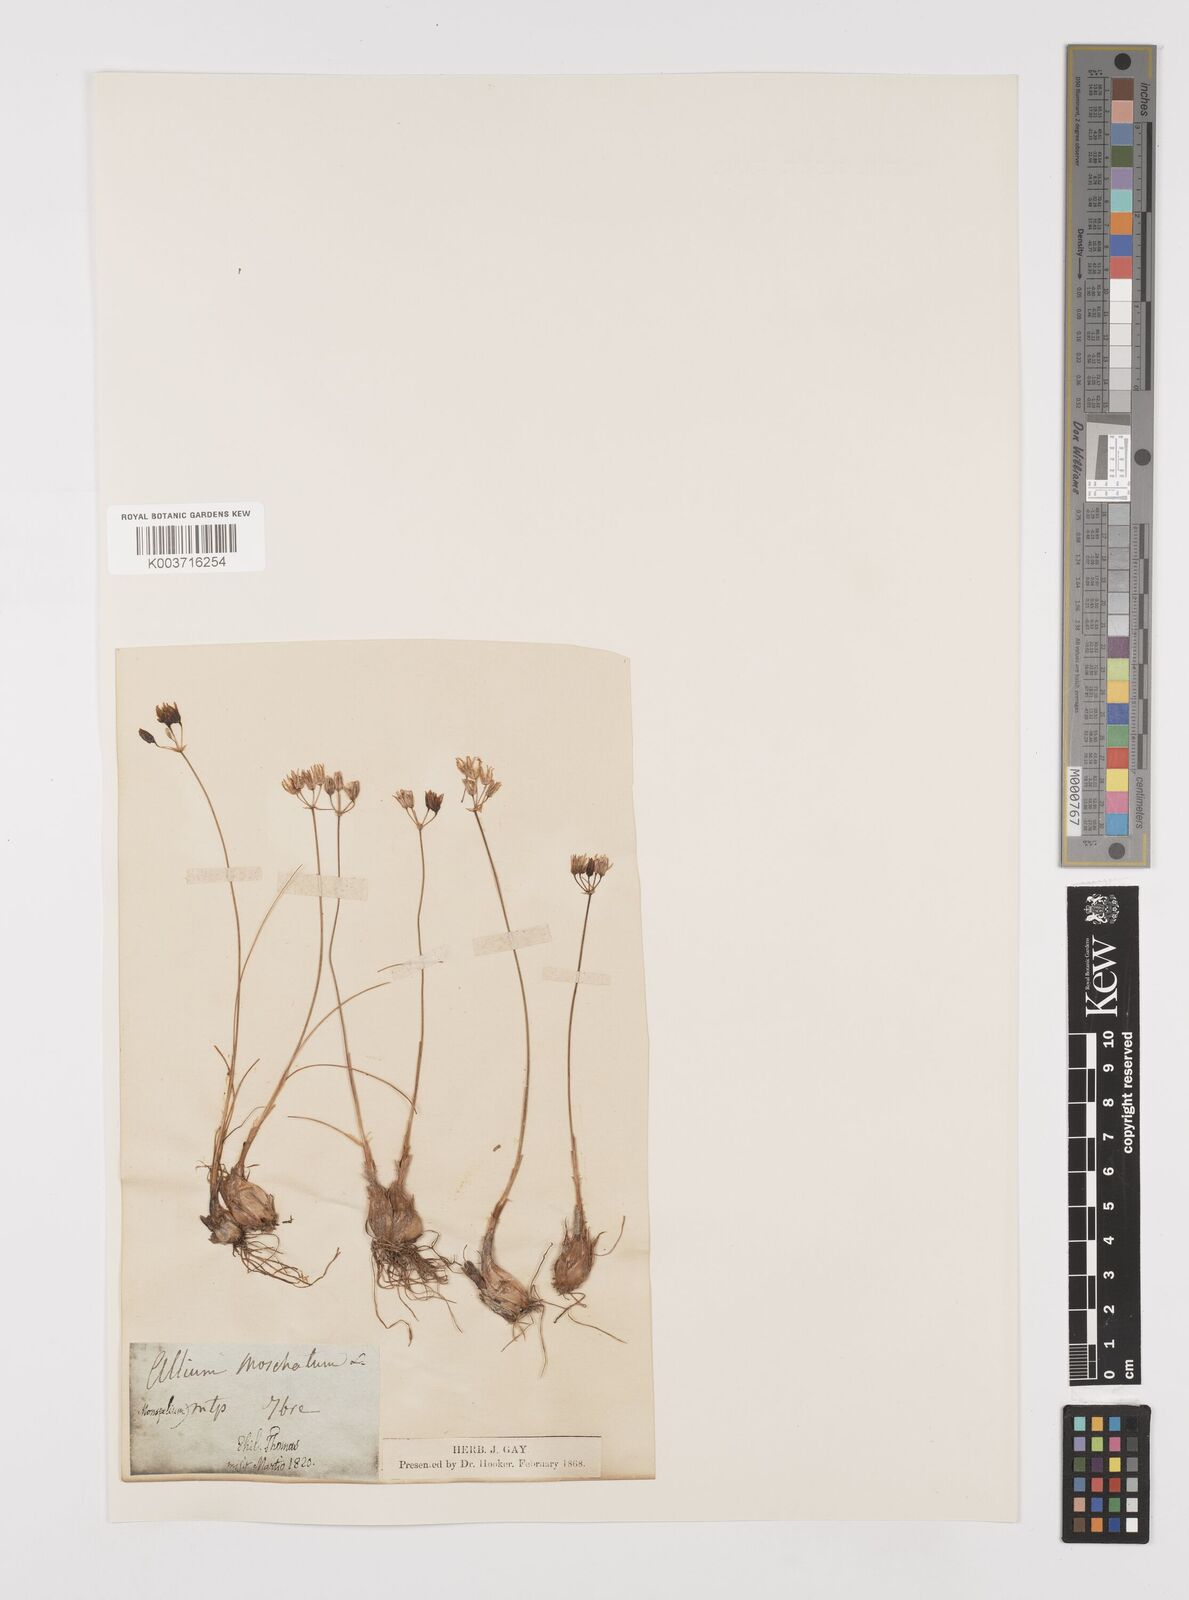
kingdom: Plantae
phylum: Tracheophyta
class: Liliopsida
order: Asparagales
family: Amaryllidaceae
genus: Allium
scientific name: Allium moschatum
